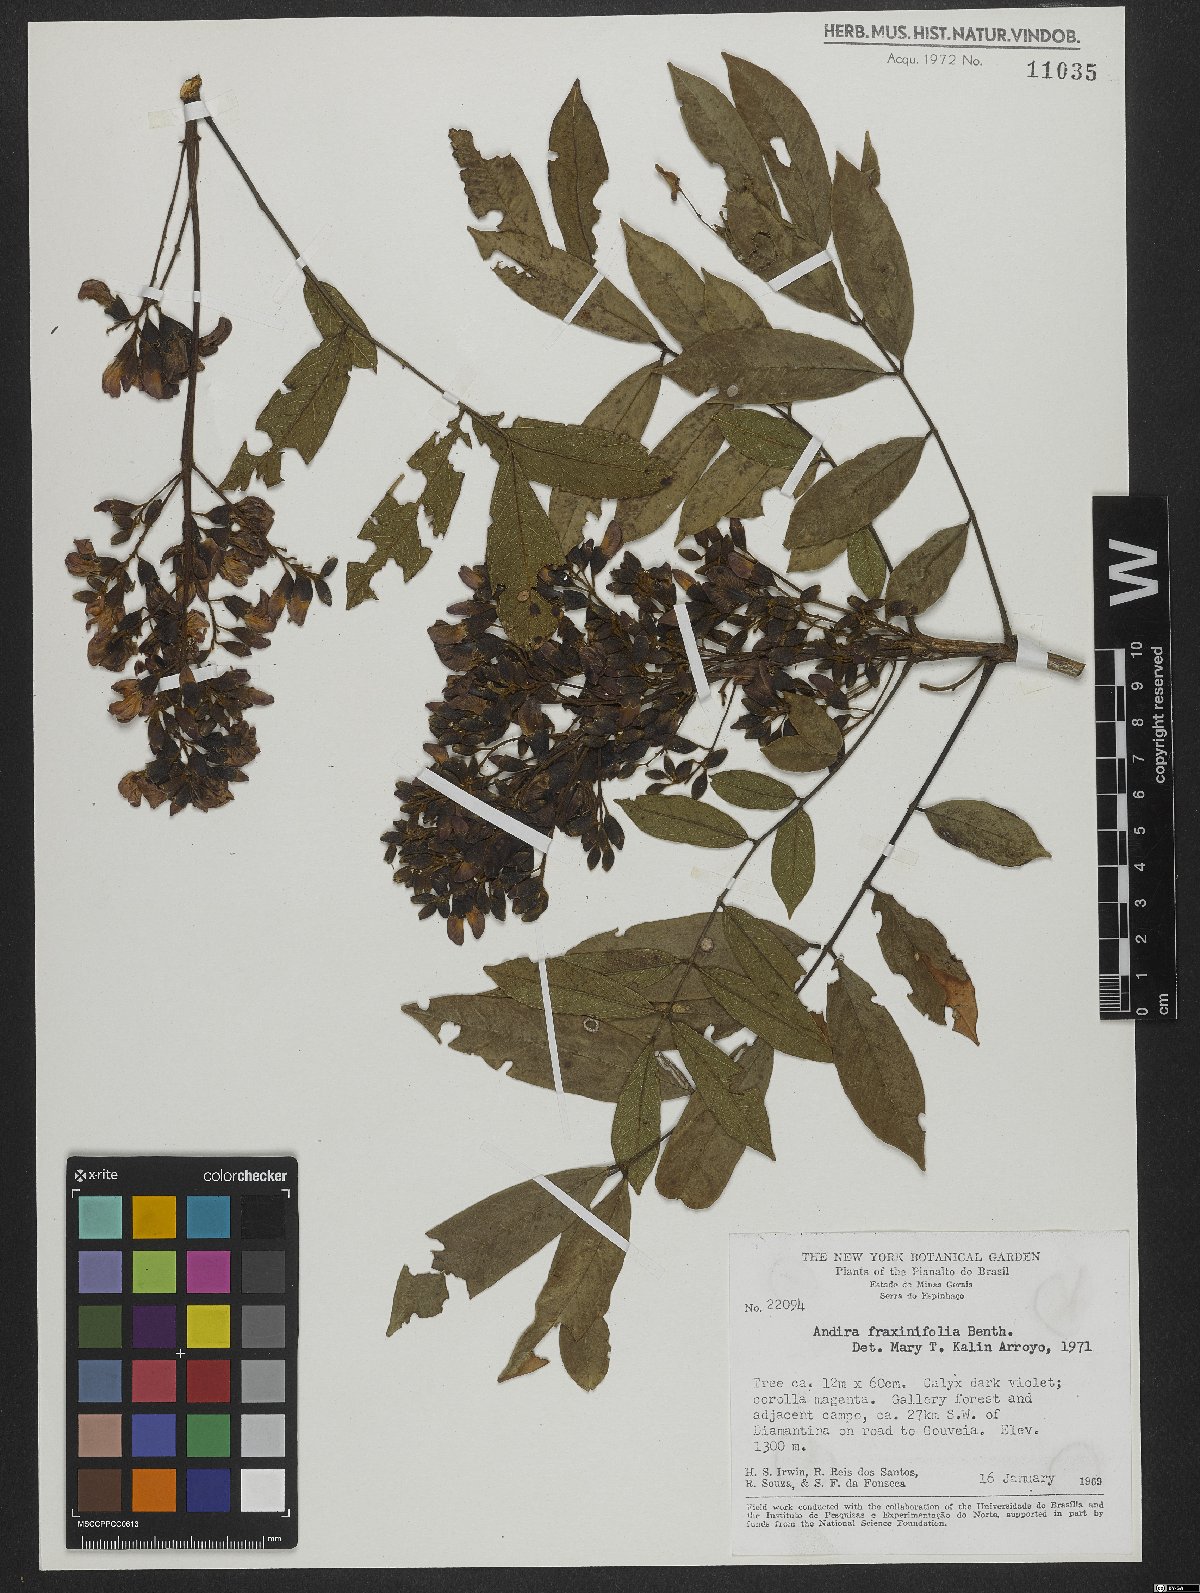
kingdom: Plantae
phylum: Tracheophyta
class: Magnoliopsida
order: Fabales
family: Fabaceae
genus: Andira
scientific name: Andira fraxinifolia
